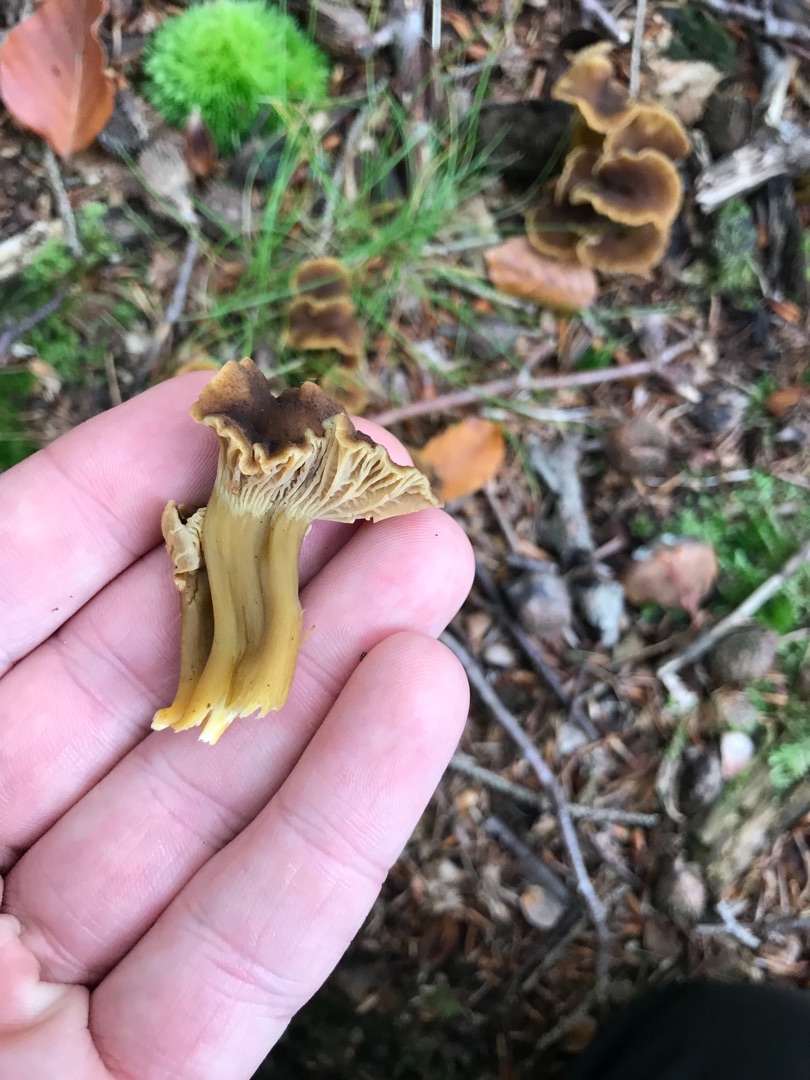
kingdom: Fungi
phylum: Basidiomycota
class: Agaricomycetes
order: Cantharellales
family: Hydnaceae
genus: Craterellus
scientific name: Craterellus tubaeformis
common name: Tragt-kantarel
